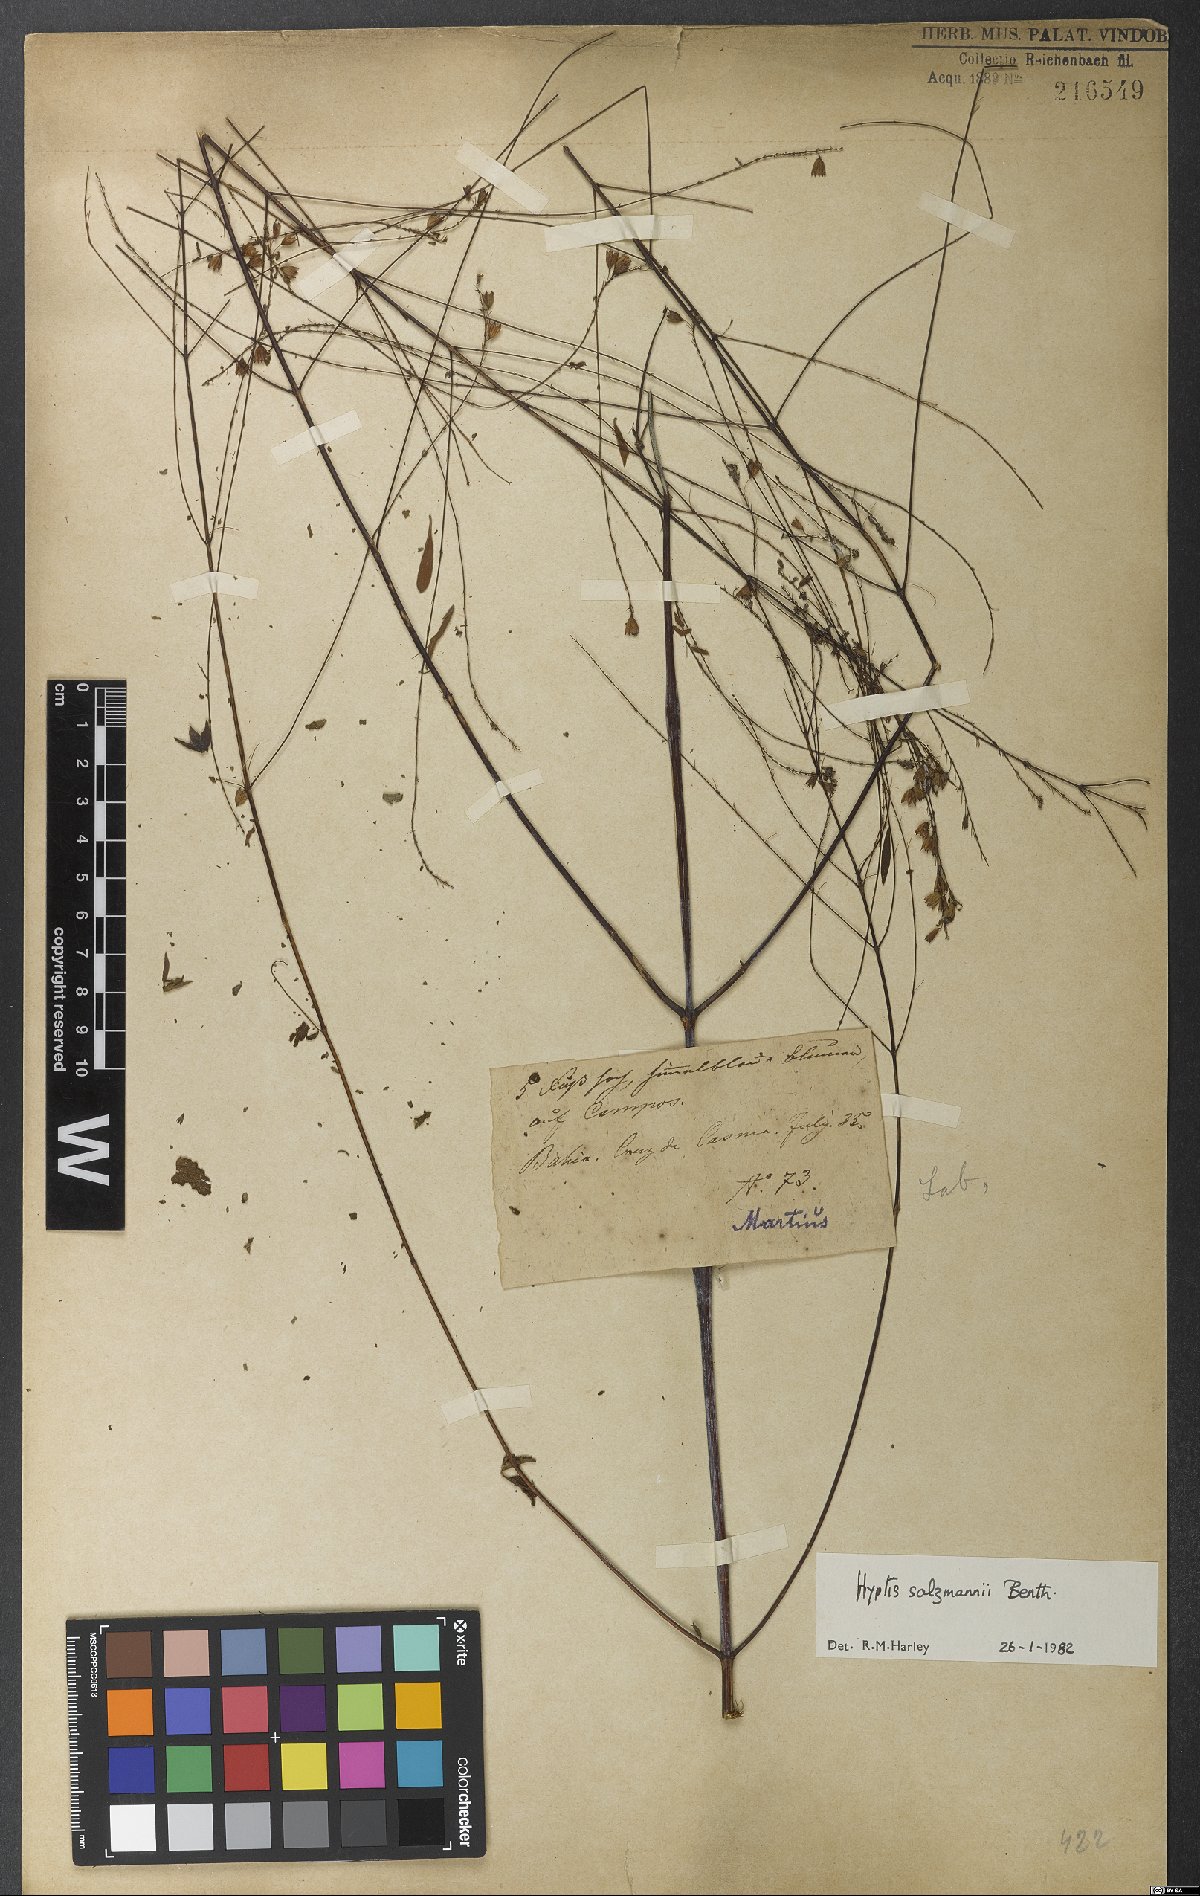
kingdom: Plantae
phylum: Tracheophyta
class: Magnoliopsida
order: Lamiales
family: Lamiaceae
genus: Hypenia
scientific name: Hypenia salzmannii
